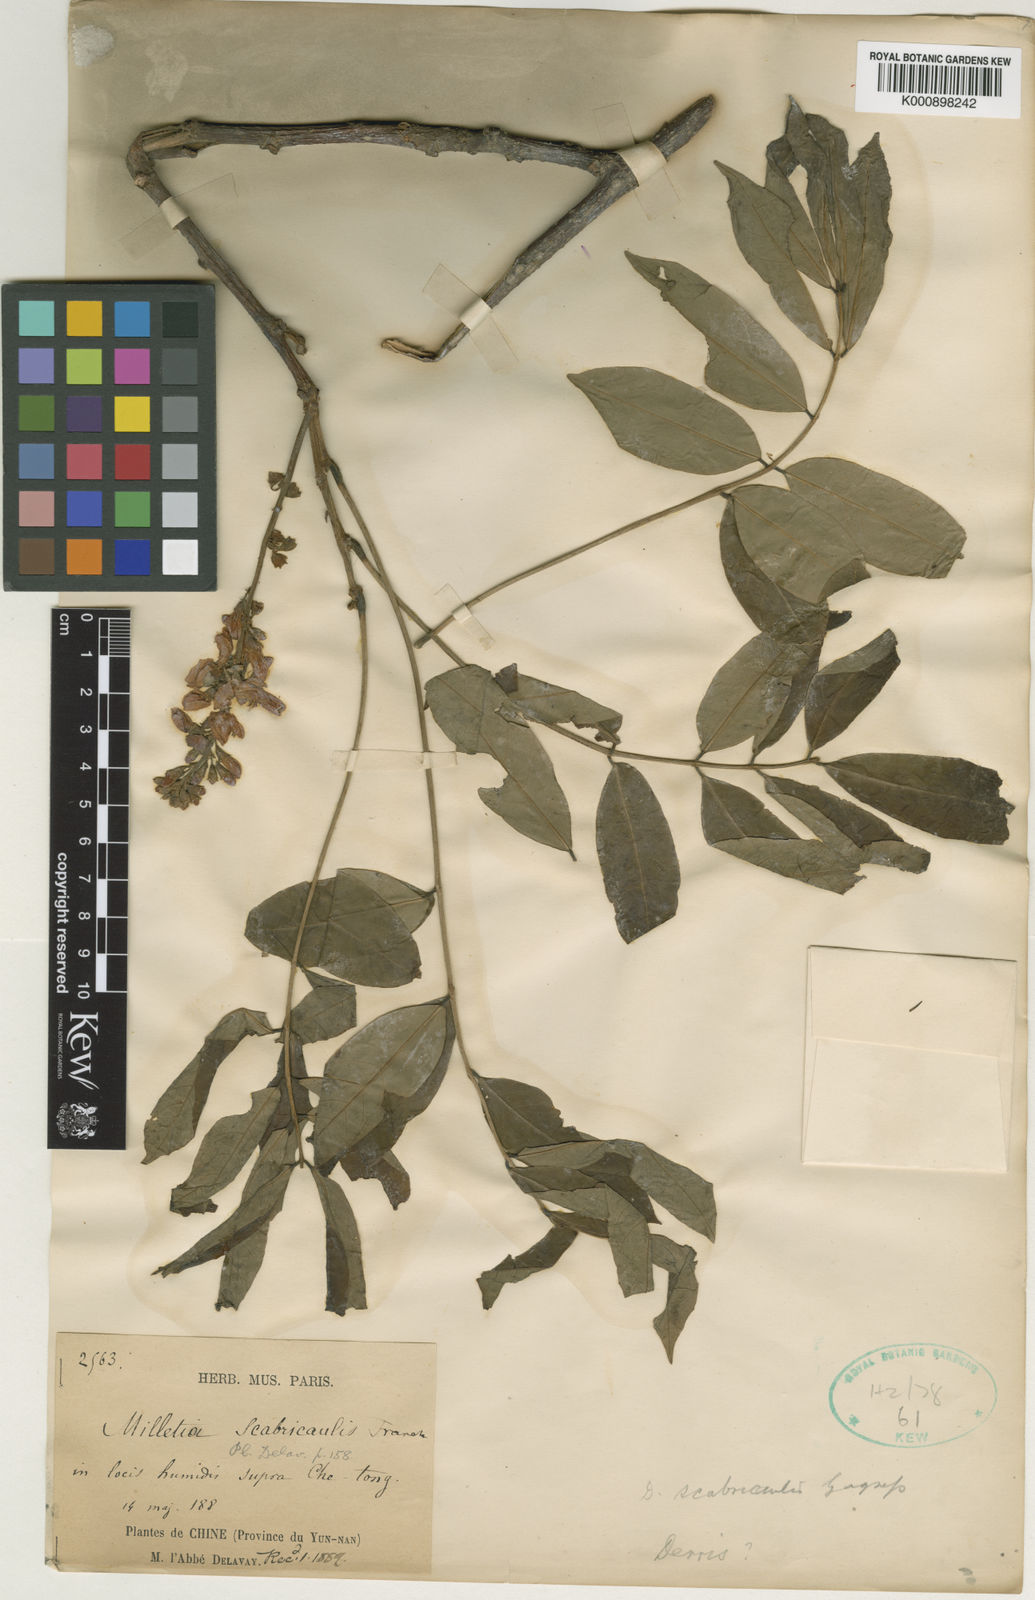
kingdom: Plantae
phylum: Tracheophyta
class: Magnoliopsida
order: Fabales
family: Fabaceae
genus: Derris
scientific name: Derris scabricaulis
